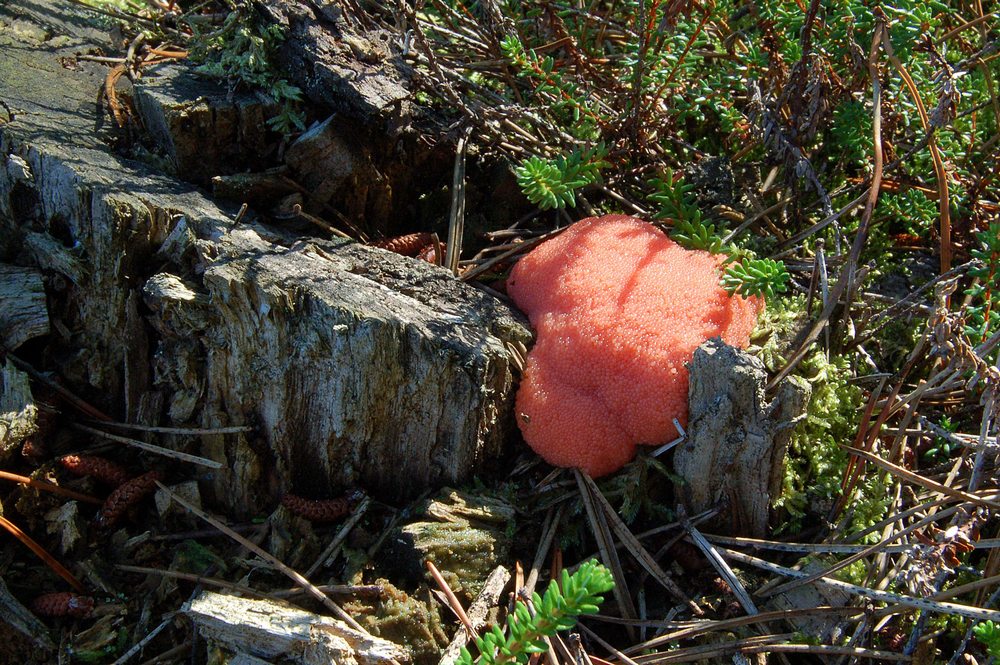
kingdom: Protozoa
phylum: Mycetozoa
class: Myxomycetes
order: Cribrariales
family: Tubiferaceae
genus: Tubifera
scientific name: Tubifera ferruginosa
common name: kanel-støvrør
